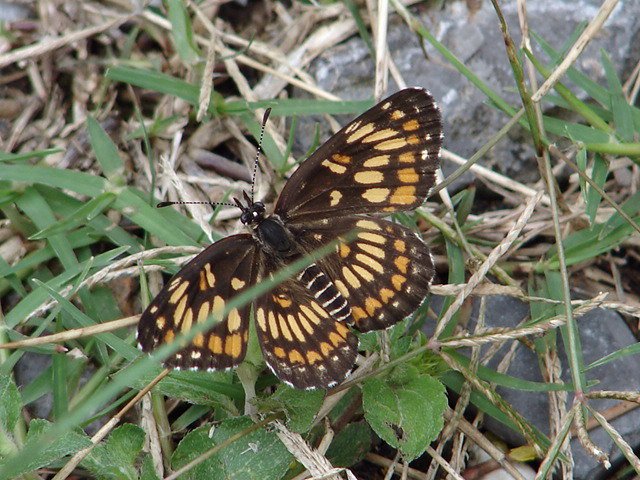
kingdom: Animalia
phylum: Arthropoda
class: Insecta
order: Lepidoptera
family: Nymphalidae
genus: Thessalia
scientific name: Thessalia theona
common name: Theona Checkerspot
